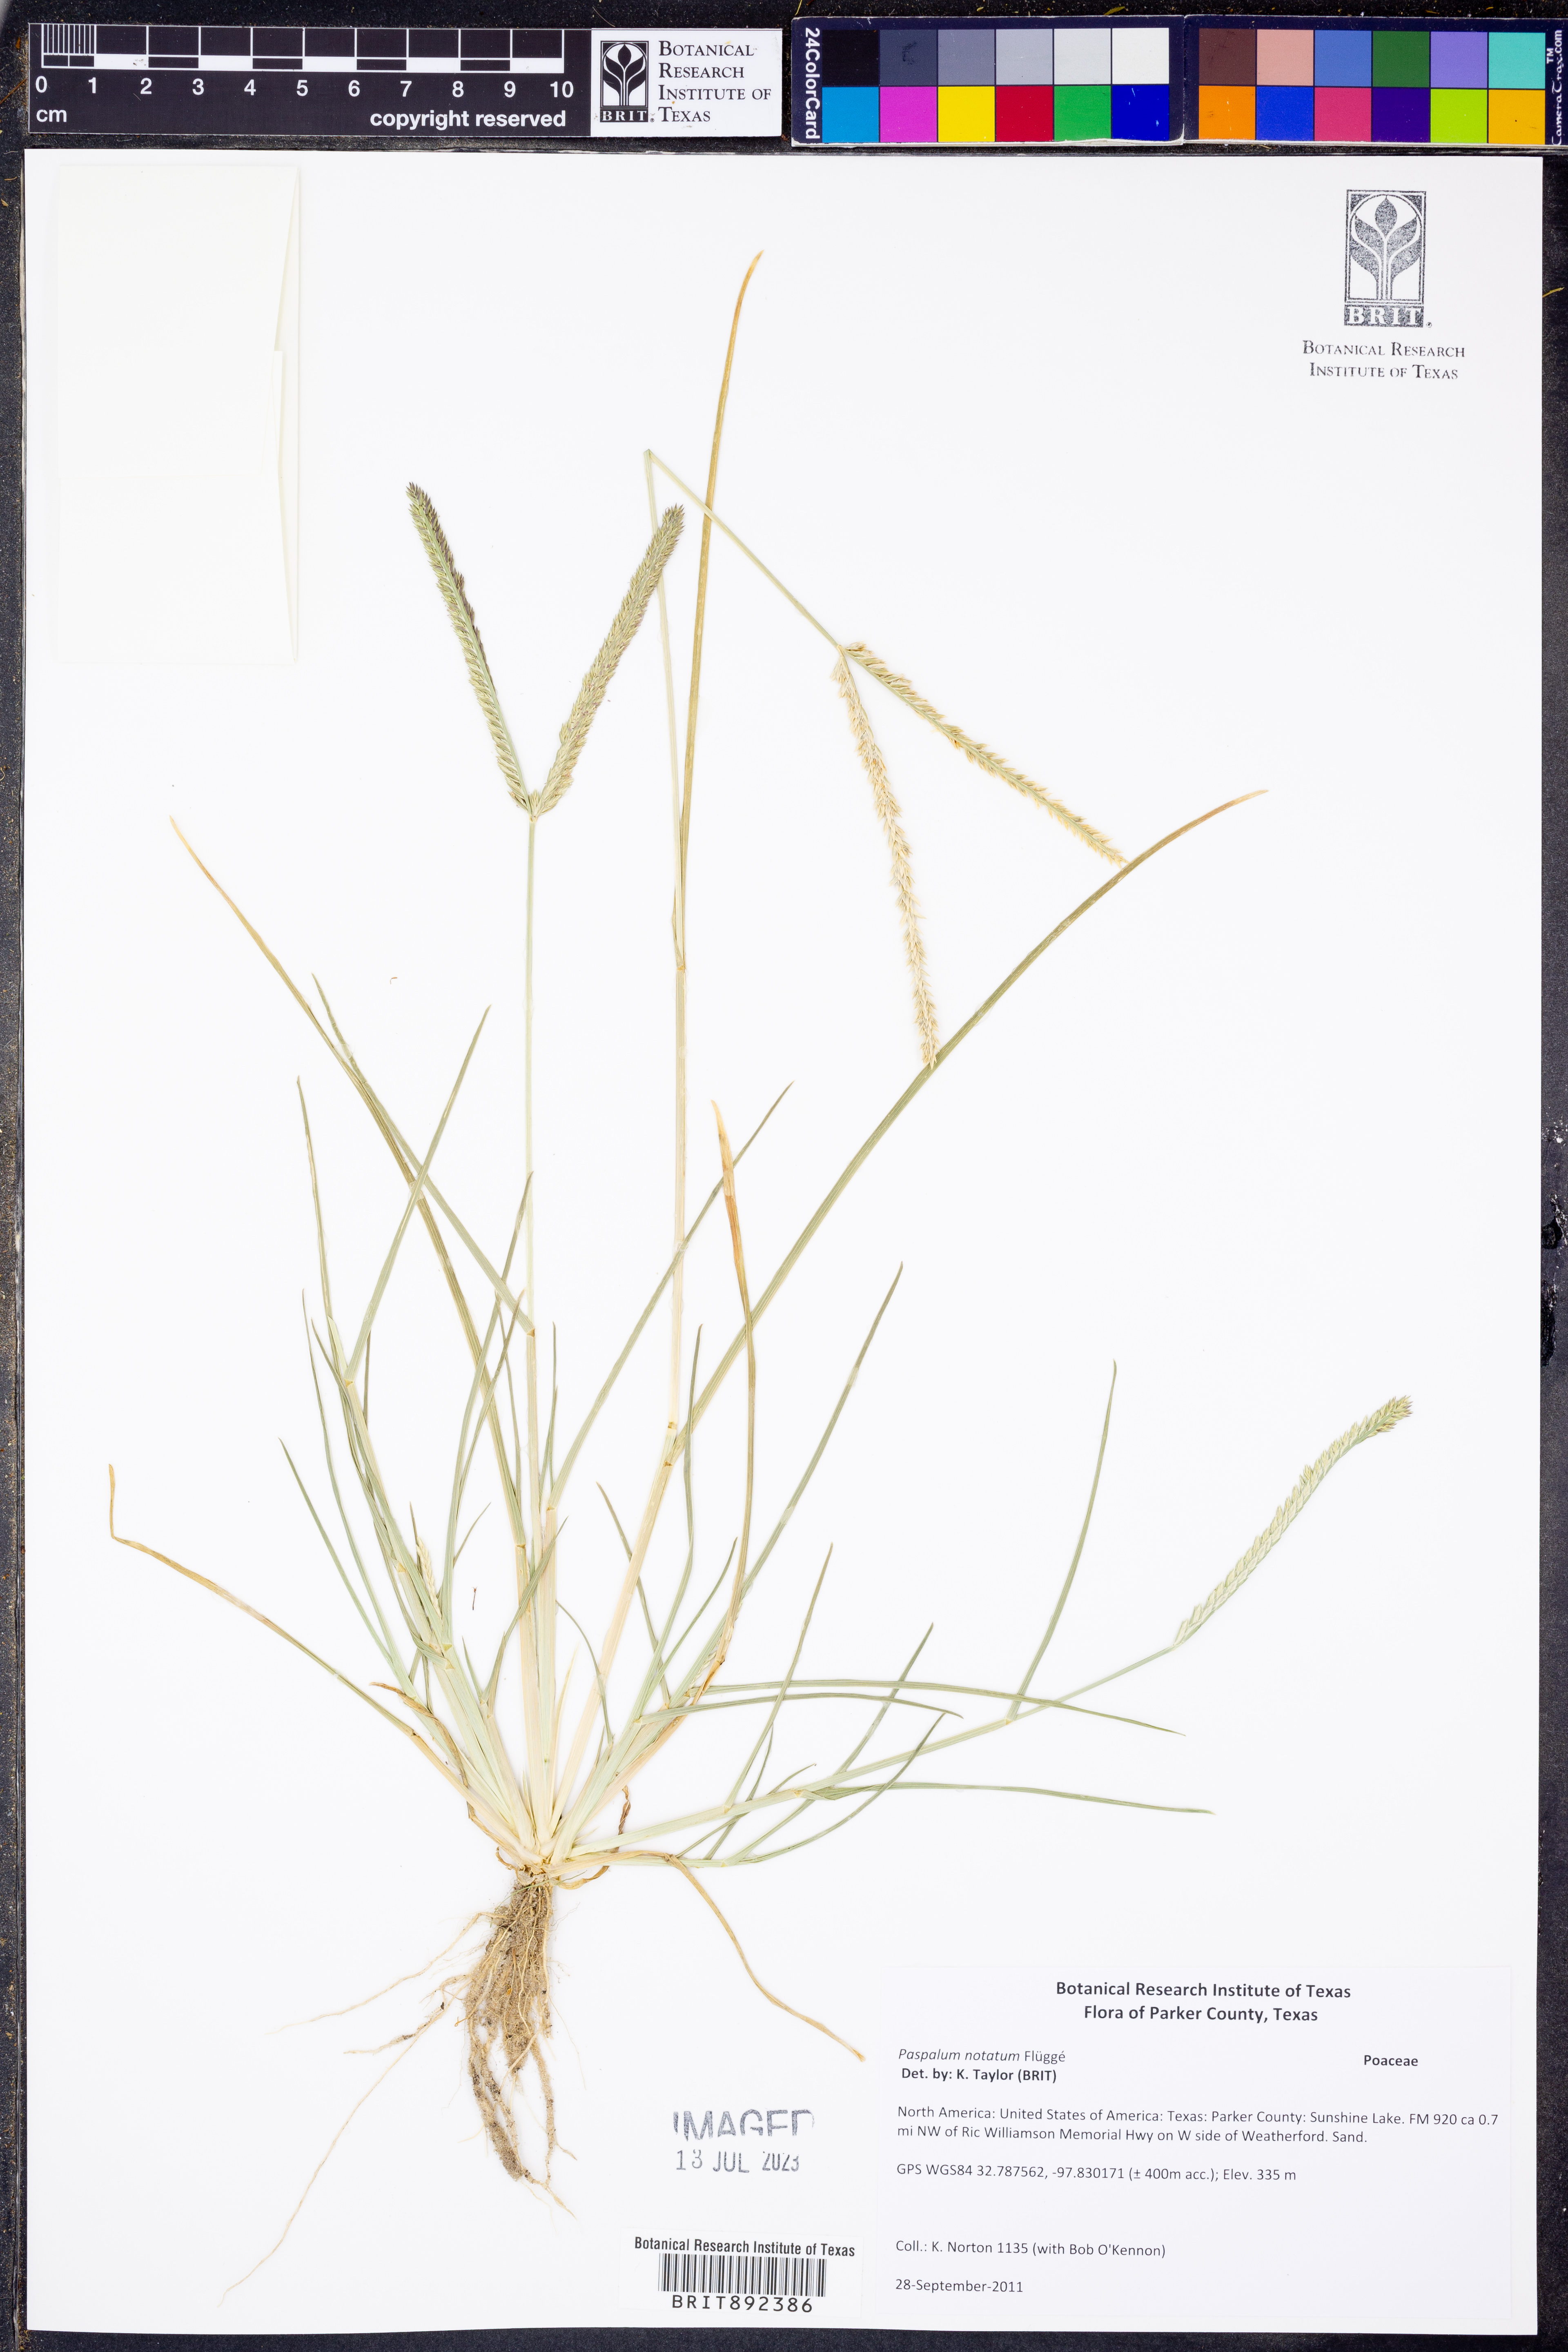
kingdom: Plantae
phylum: Tracheophyta
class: Liliopsida
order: Poales
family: Poaceae
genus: Paspalum
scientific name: Paspalum notatum
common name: Bahiagrass
